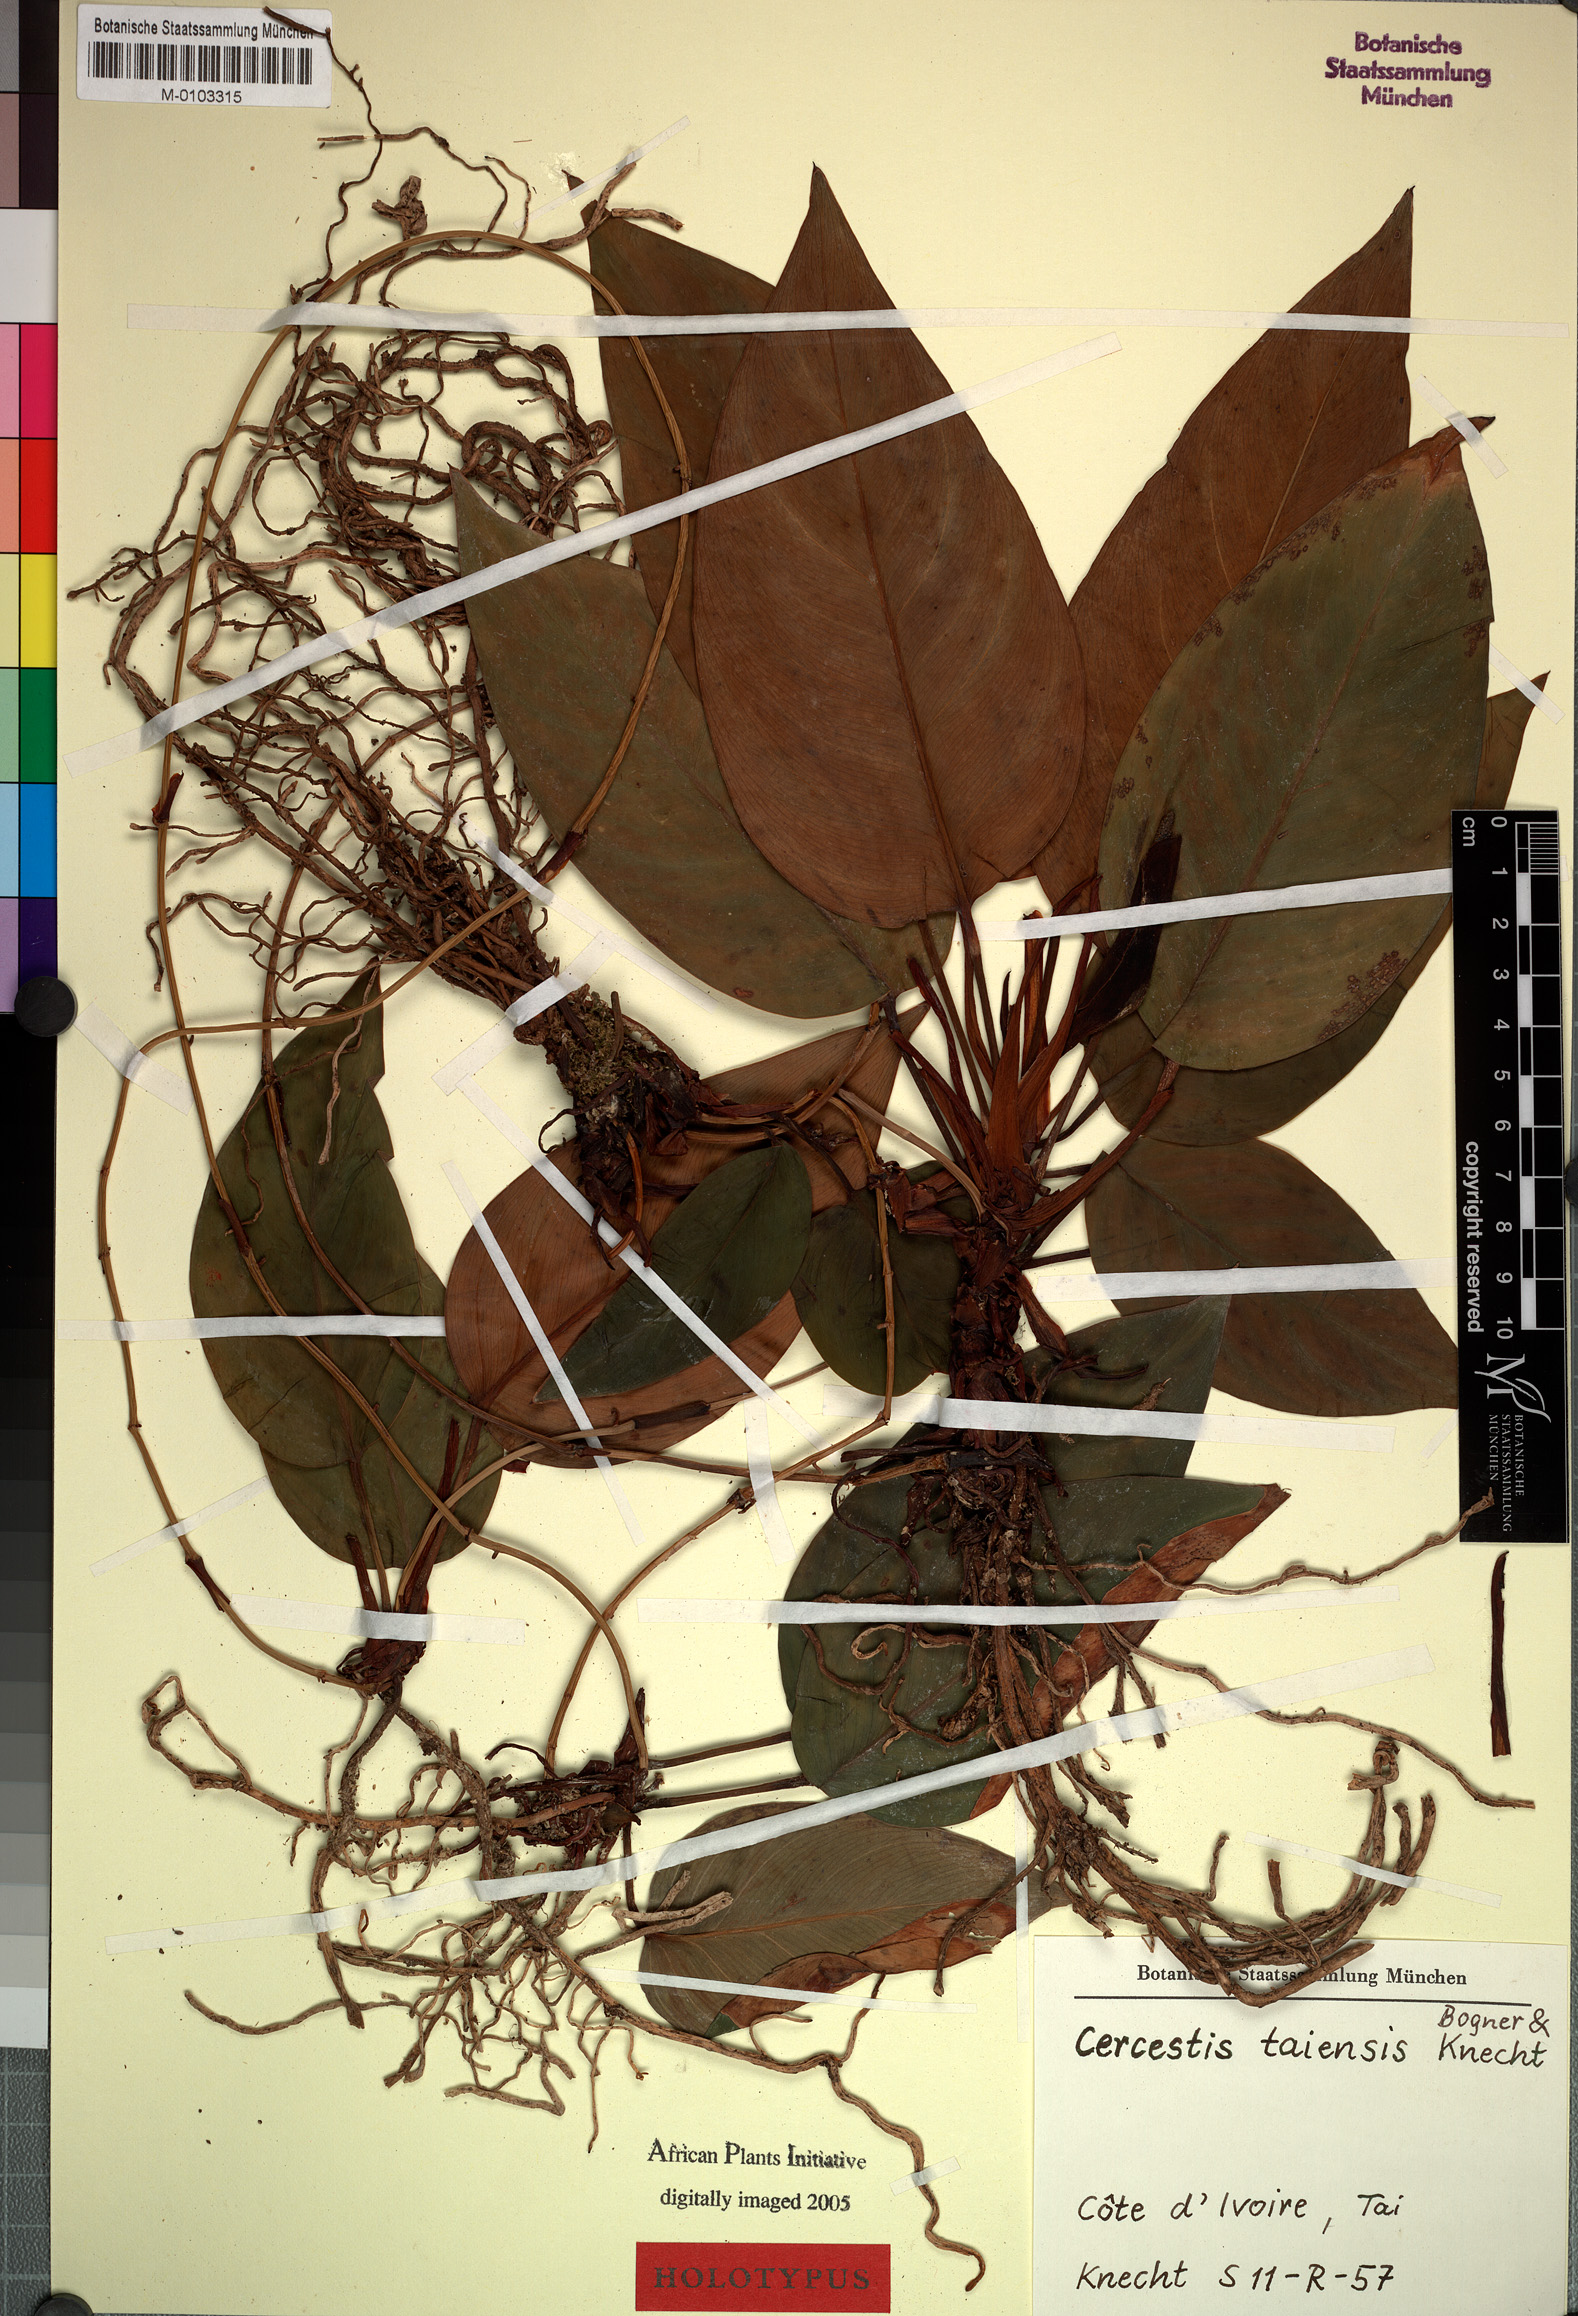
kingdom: Plantae
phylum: Tracheophyta
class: Liliopsida
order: Alismatales
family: Araceae
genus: Cercestis
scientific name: Cercestis taiensis
